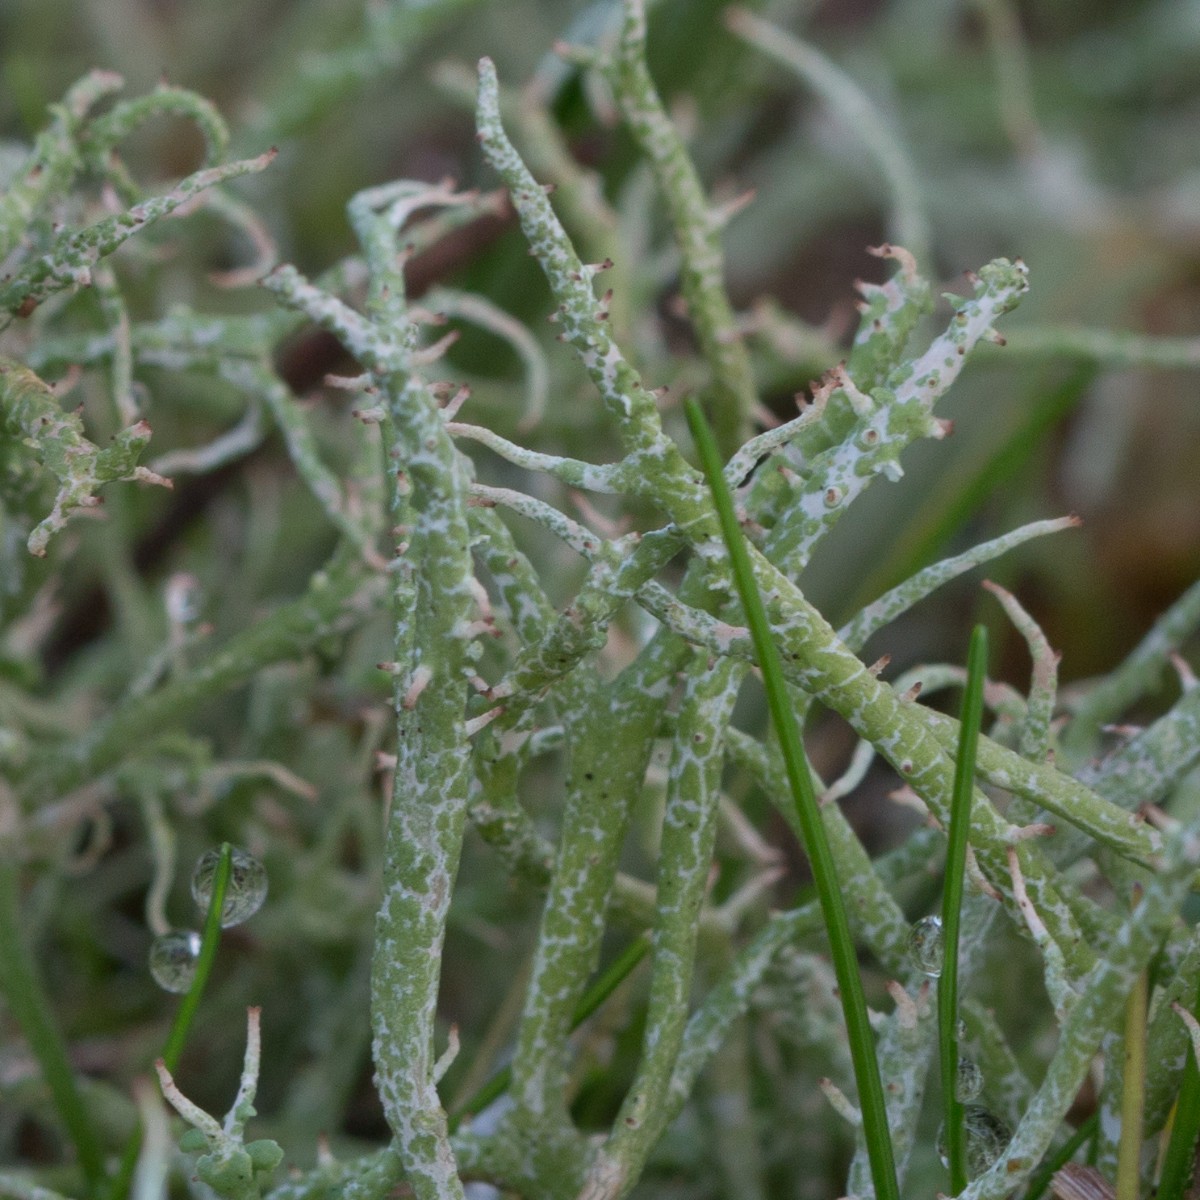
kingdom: Fungi
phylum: Ascomycota
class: Lecanoromycetes
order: Lecanorales
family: Cladoniaceae
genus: Cladonia
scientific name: Cladonia rangiformis
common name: spættet bægerlav
